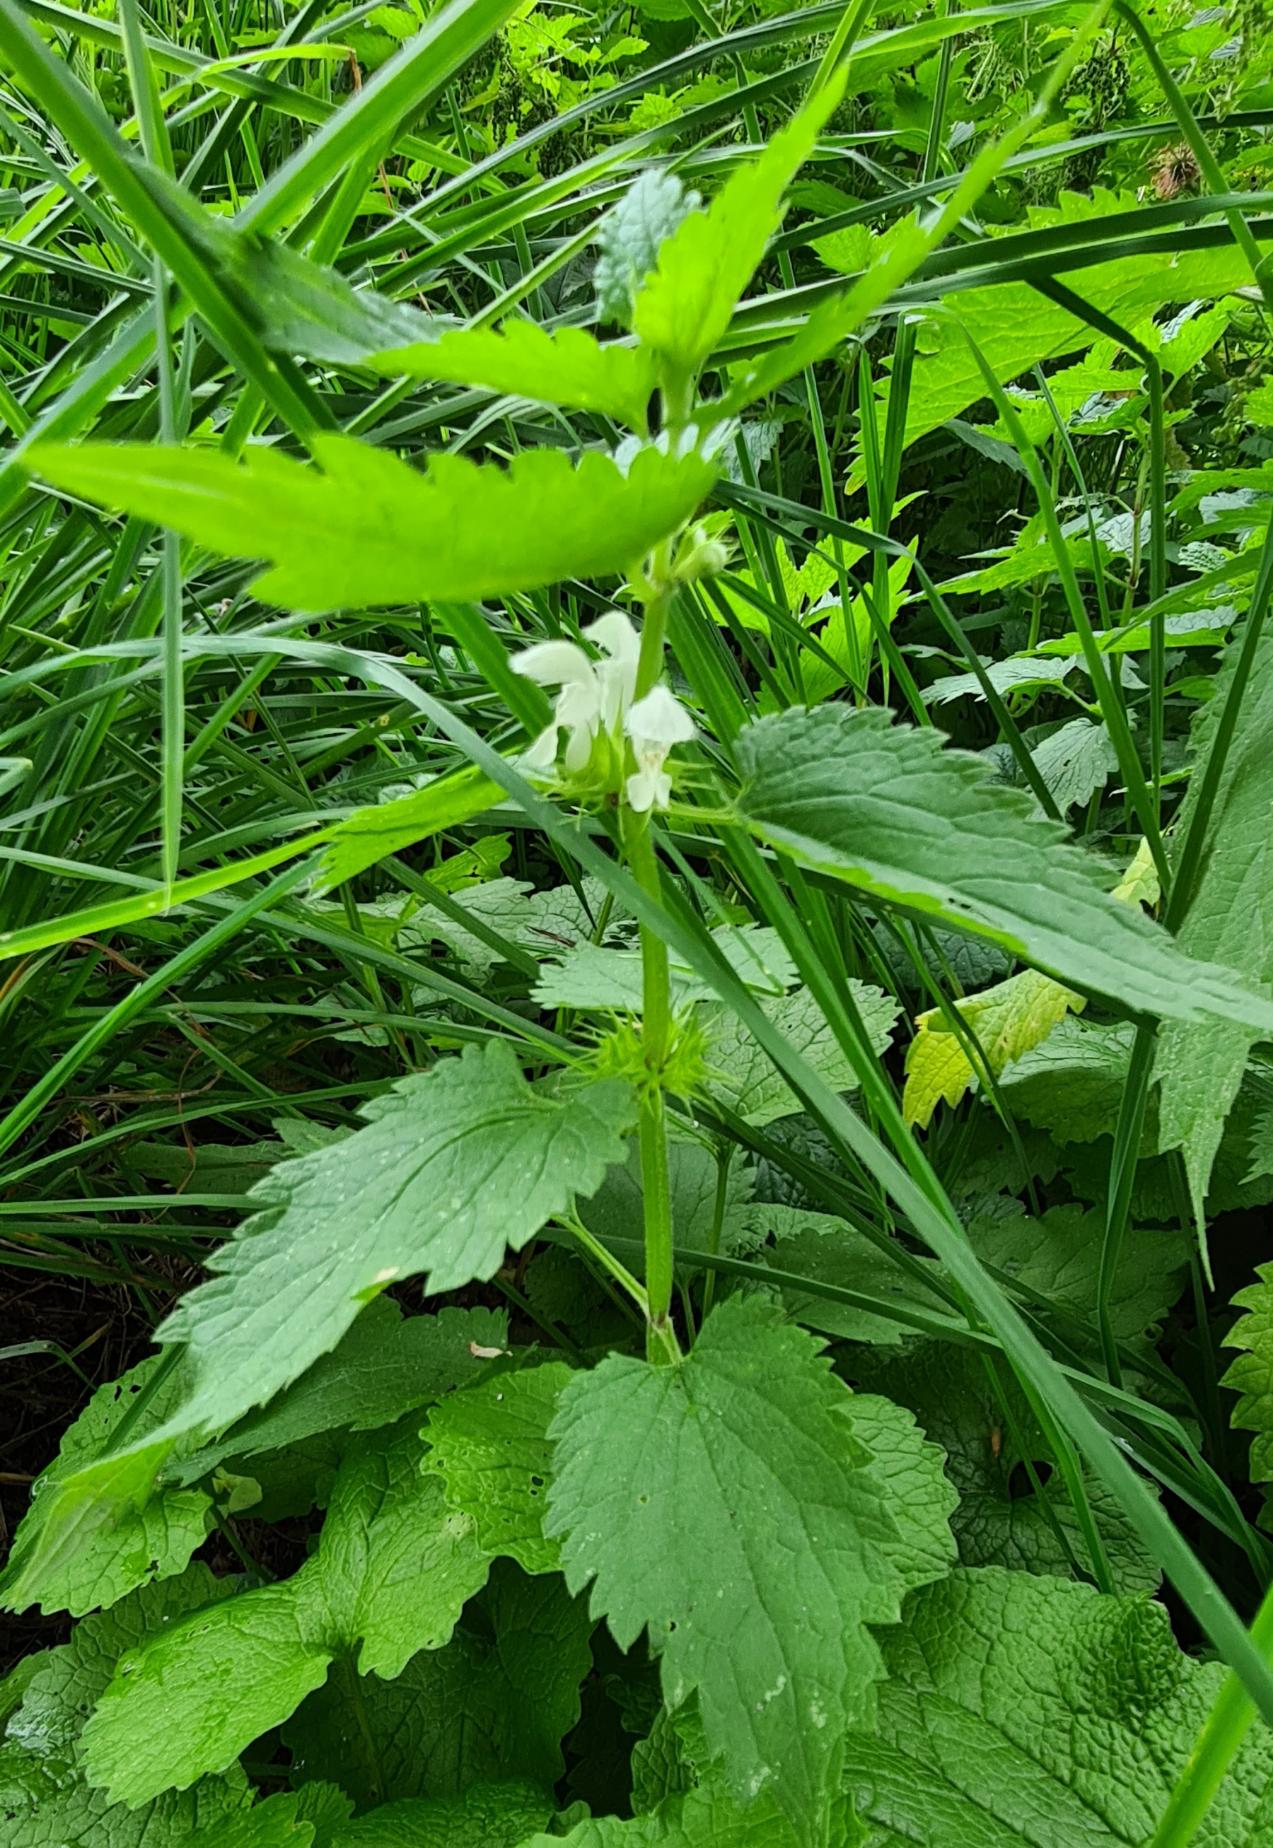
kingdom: Plantae
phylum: Tracheophyta
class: Magnoliopsida
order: Lamiales
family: Lamiaceae
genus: Lamium
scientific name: Lamium album
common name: Døvnælde
